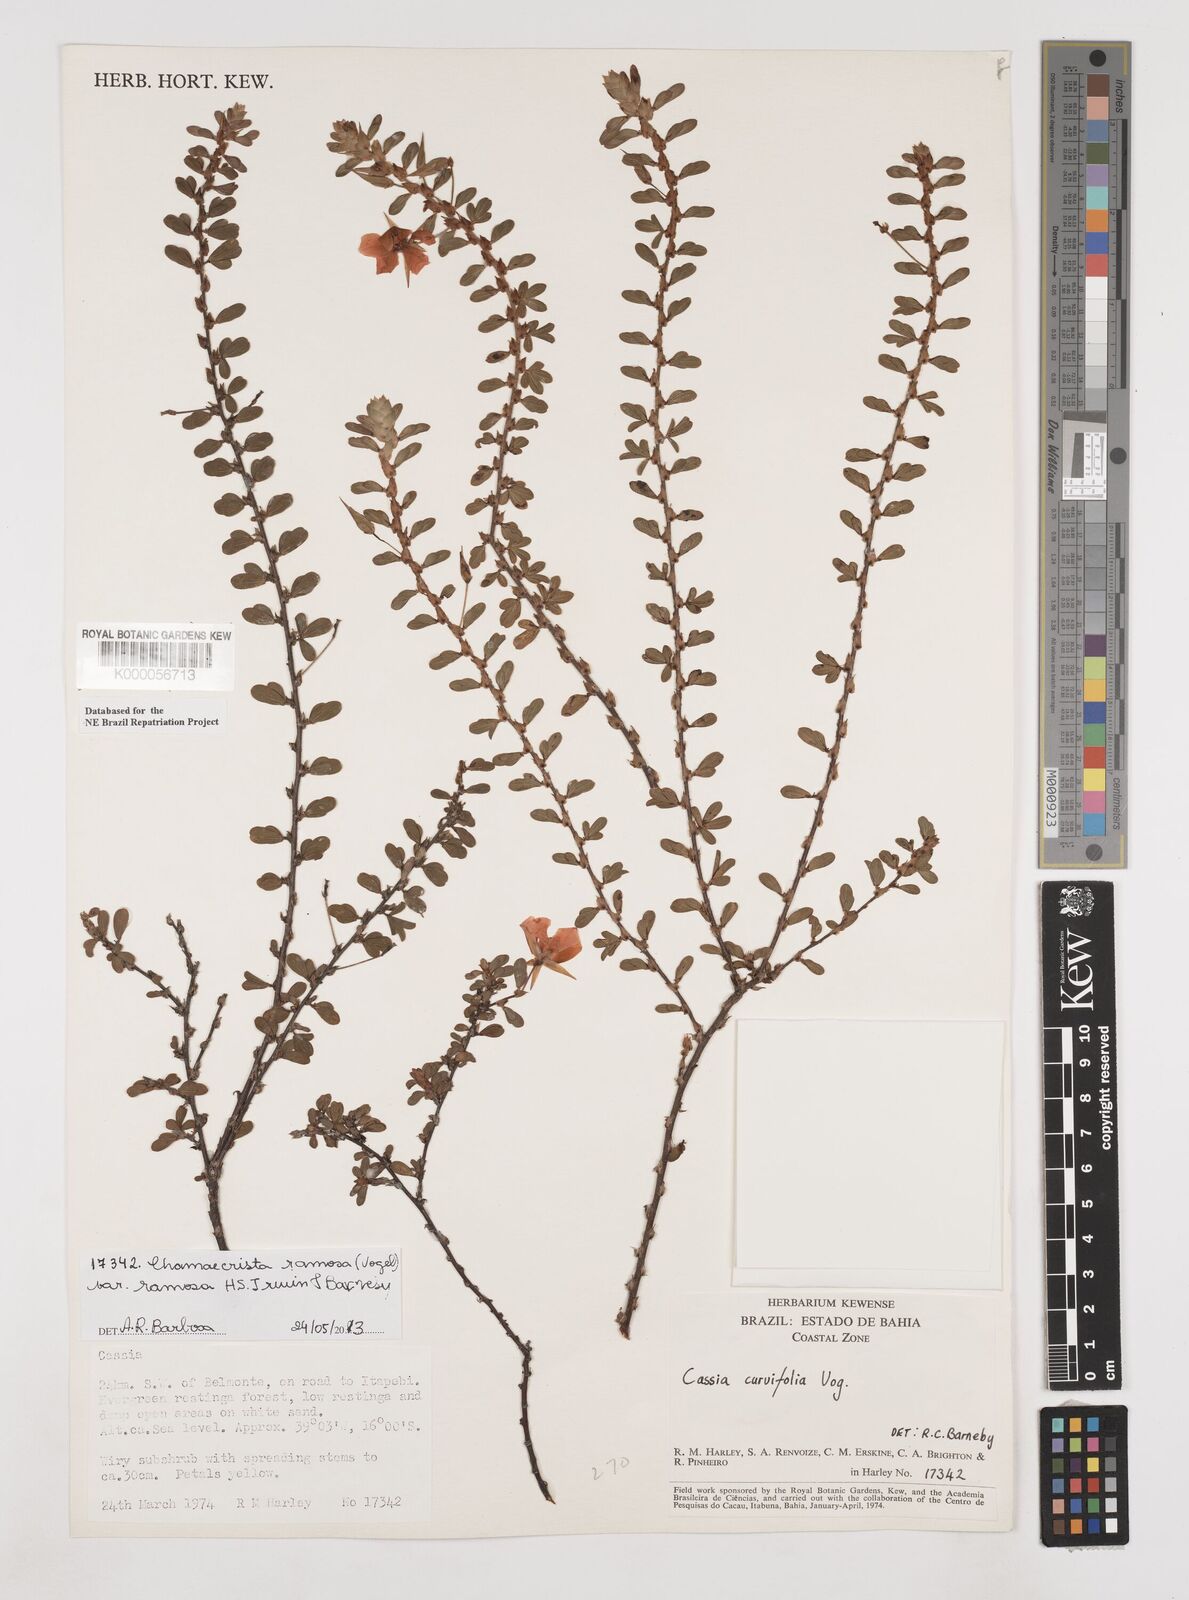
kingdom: Plantae
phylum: Tracheophyta
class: Magnoliopsida
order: Fabales
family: Fabaceae
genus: Chamaecrista
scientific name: Chamaecrista ramosa
